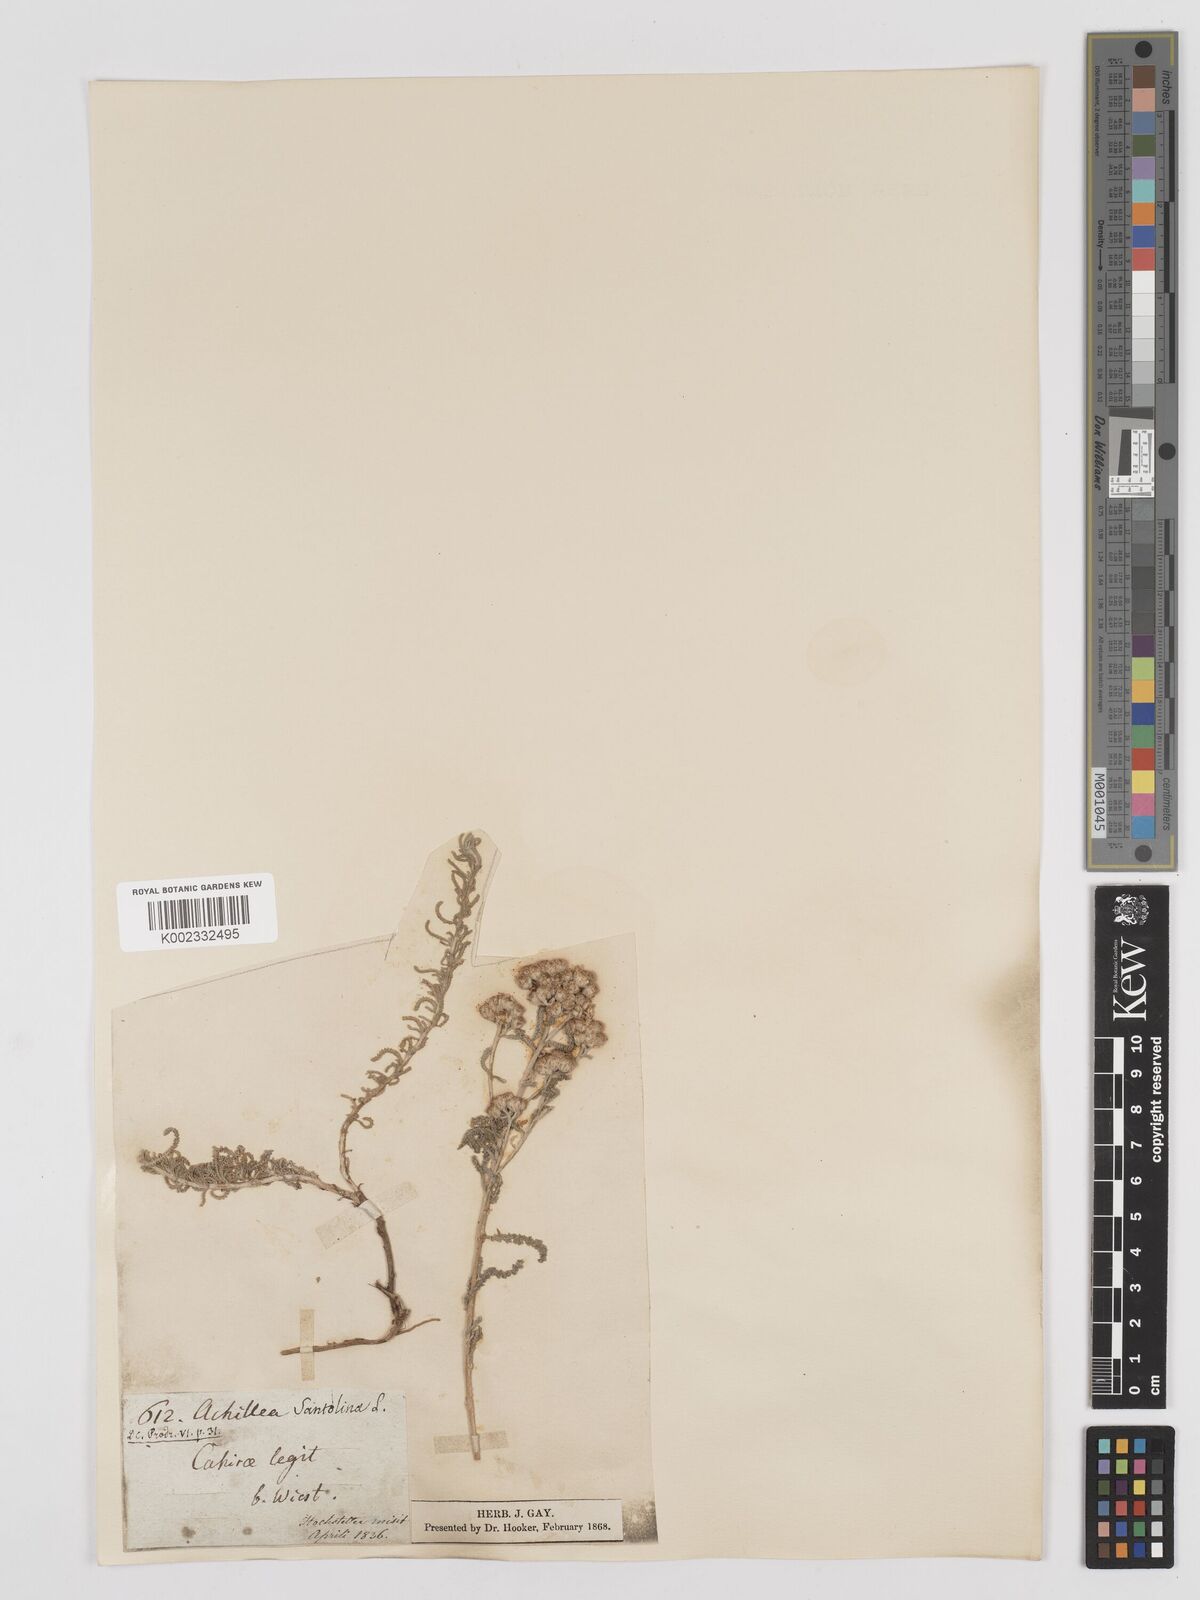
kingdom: Plantae
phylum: Tracheophyta
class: Magnoliopsida
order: Asterales
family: Asteraceae
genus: Achillea
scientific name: Achillea tenuifolia
